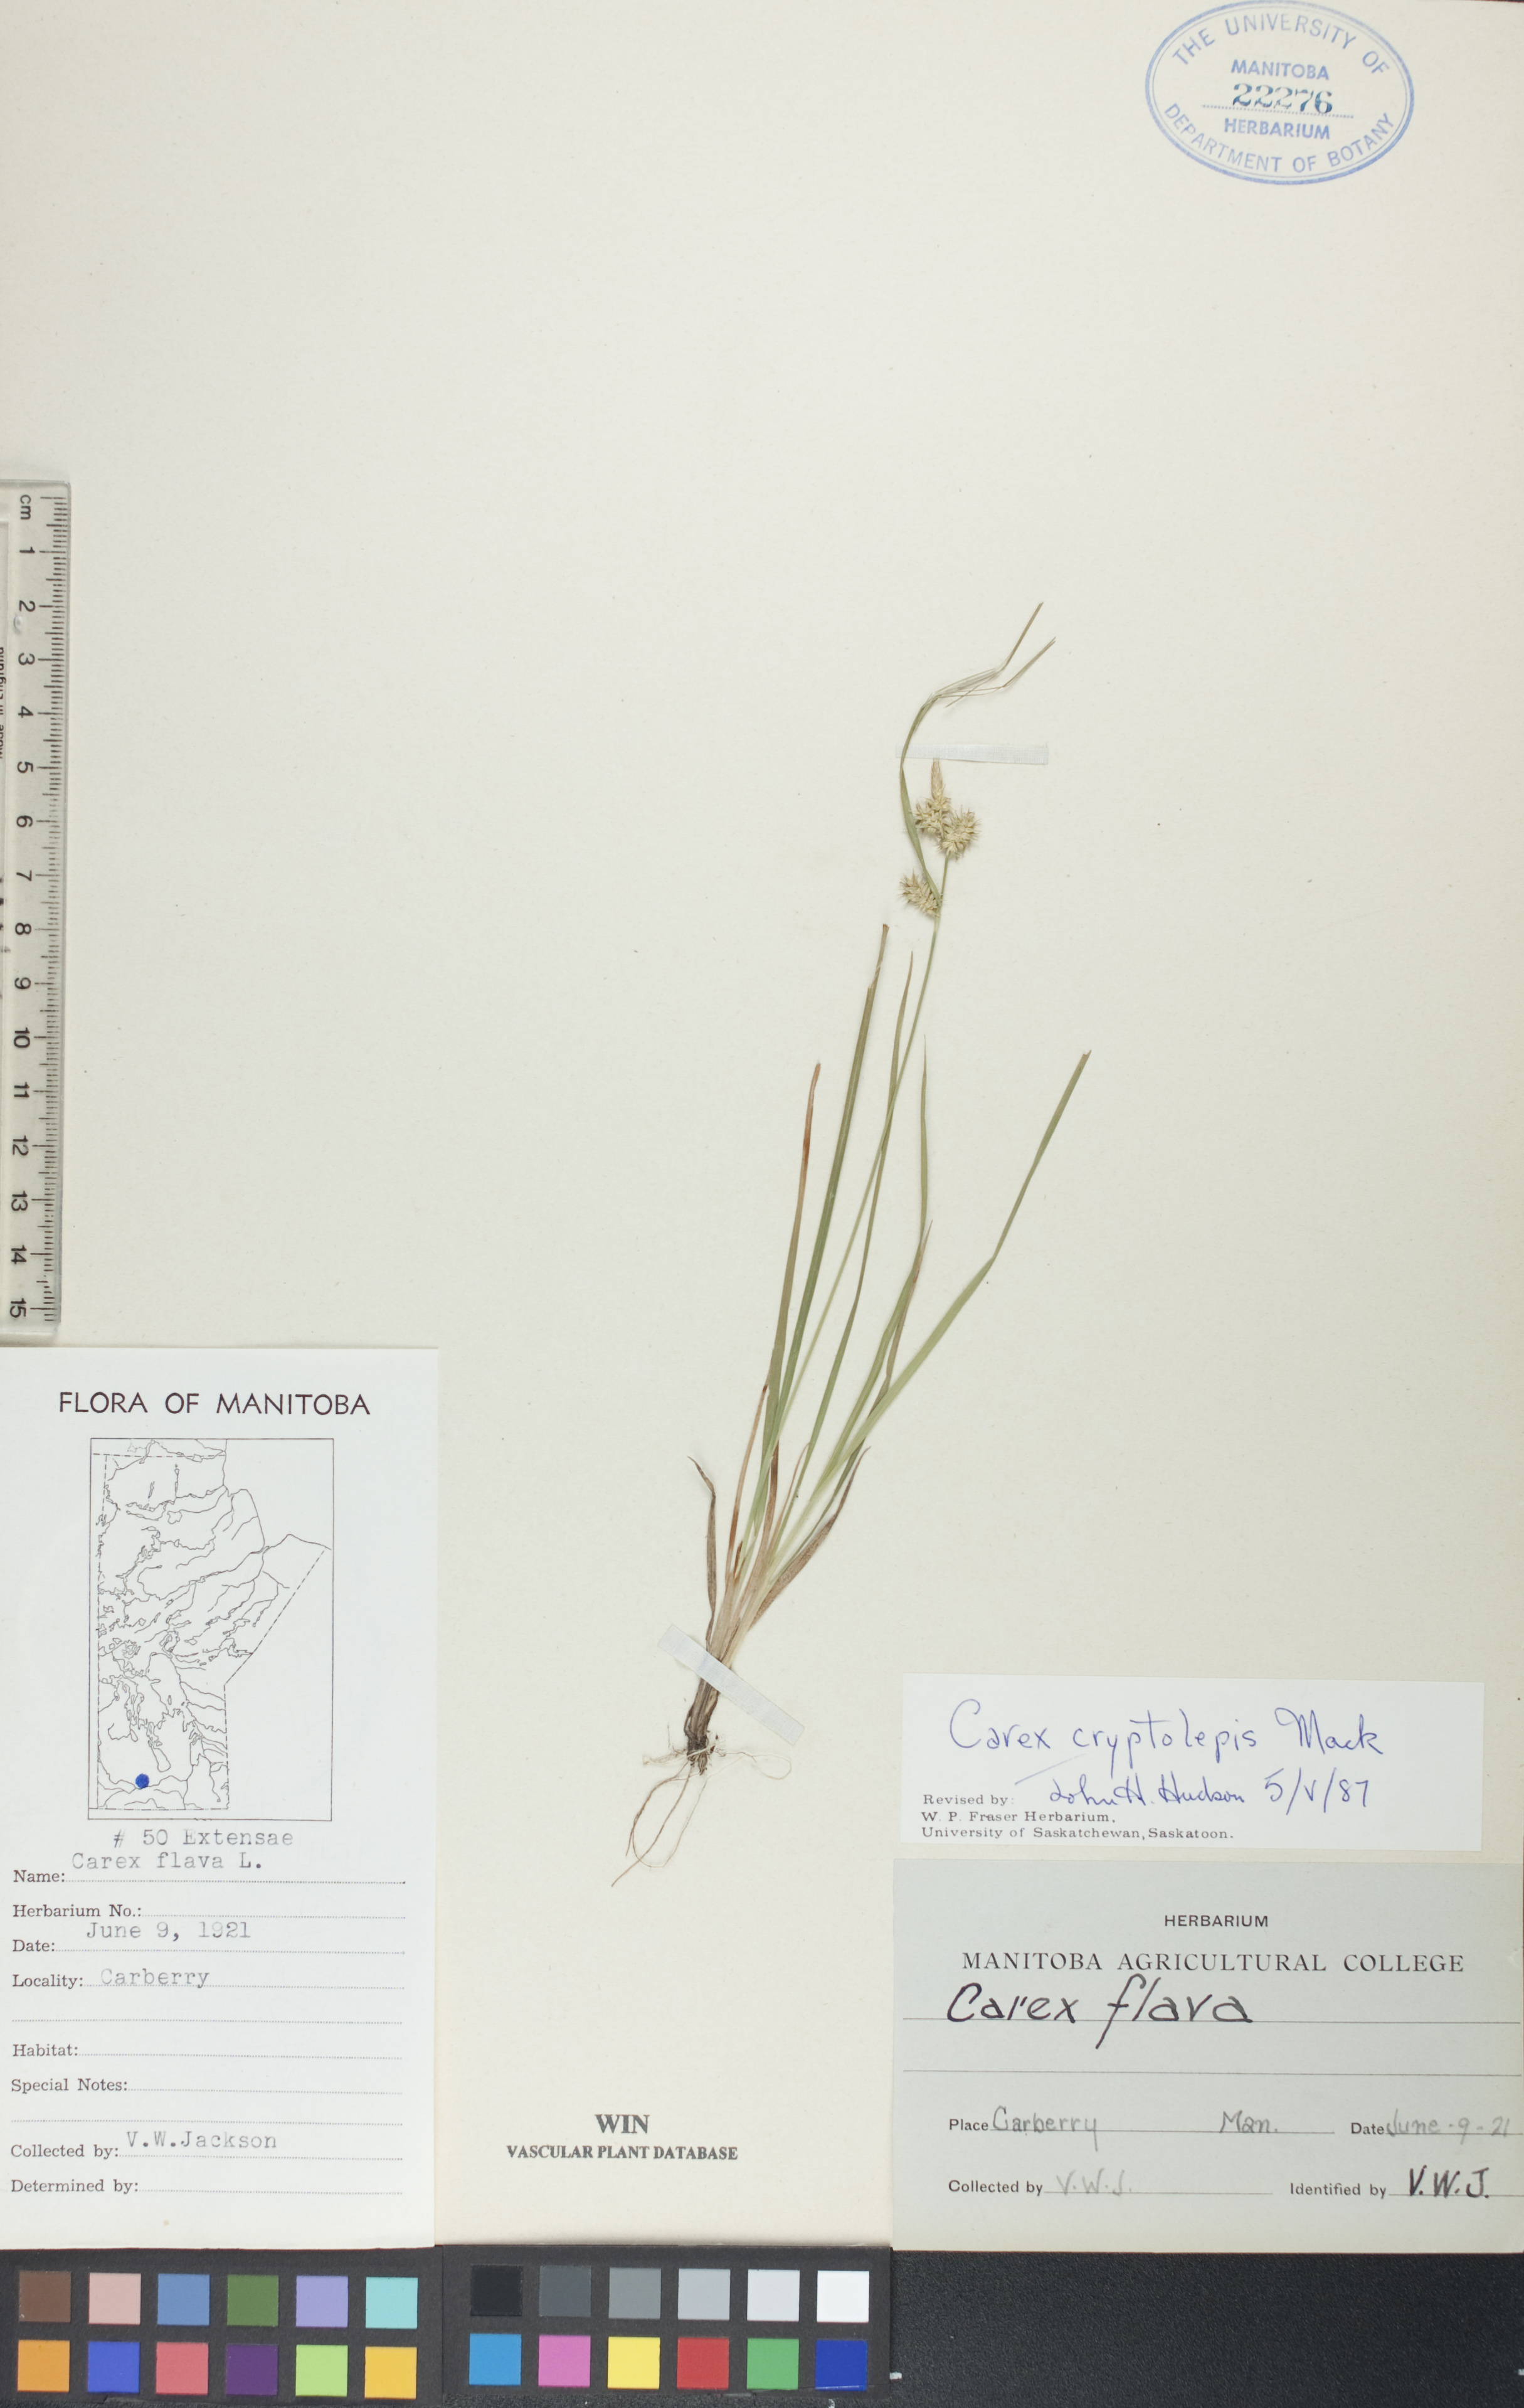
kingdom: Plantae
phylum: Tracheophyta
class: Liliopsida
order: Poales
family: Cyperaceae
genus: Carex
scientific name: Carex cryptolepis
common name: Northeastern sedge
